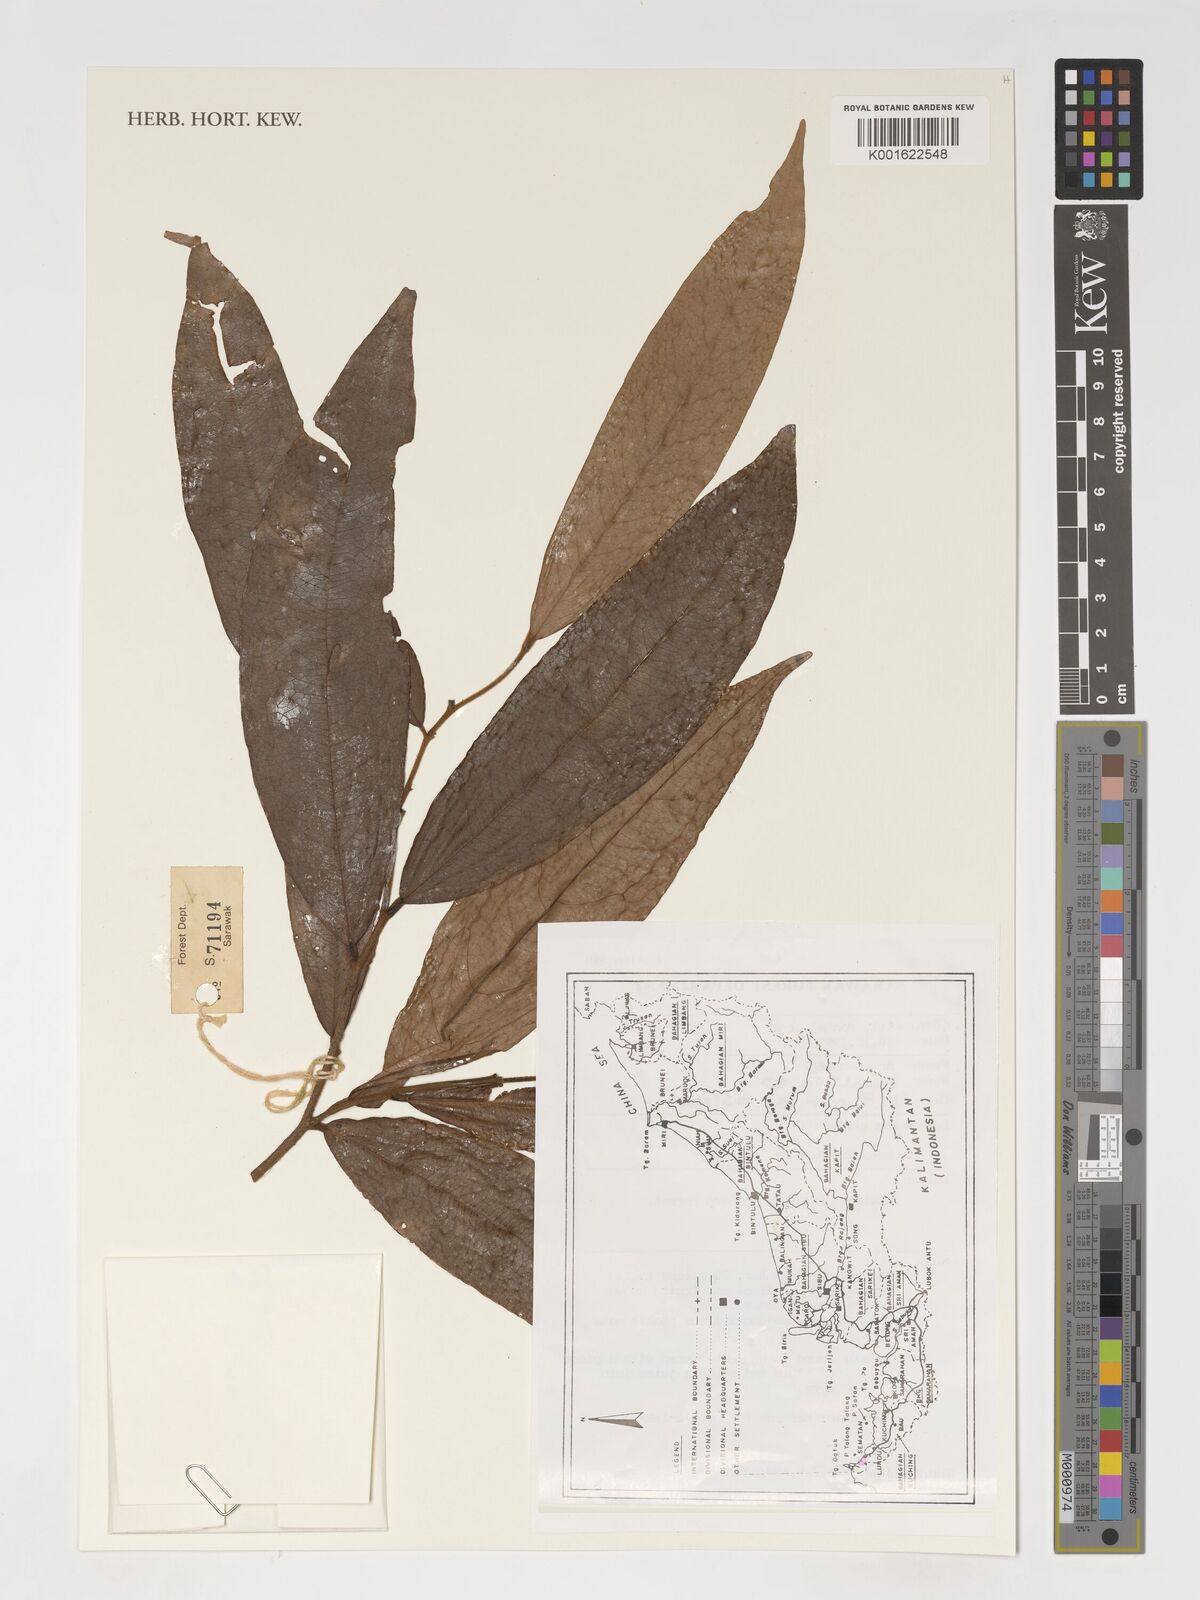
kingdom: Plantae
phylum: Tracheophyta
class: Magnoliopsida
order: Magnoliales
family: Annonaceae
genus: Polyalthia
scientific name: Polyalthia
